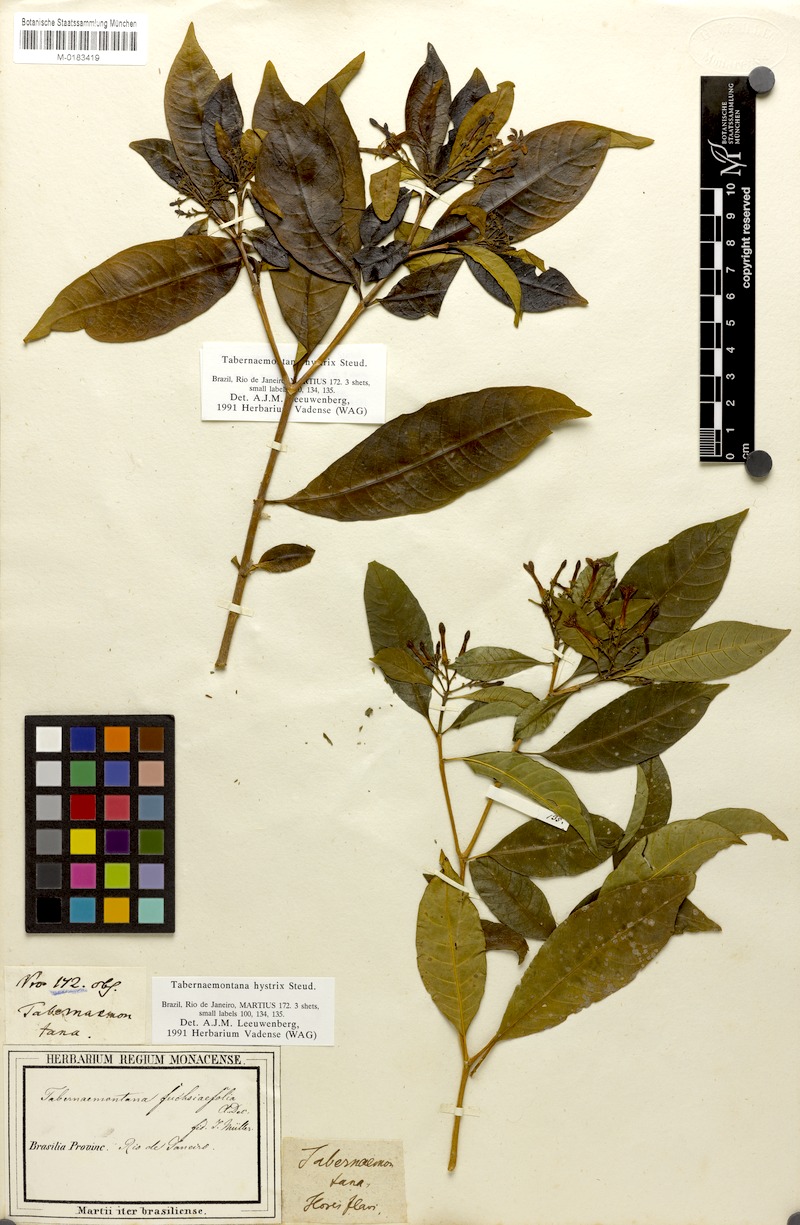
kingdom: Plantae
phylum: Tracheophyta
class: Magnoliopsida
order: Gentianales
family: Apocynaceae
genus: Tabernaemontana
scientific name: Tabernaemontana hystrix
